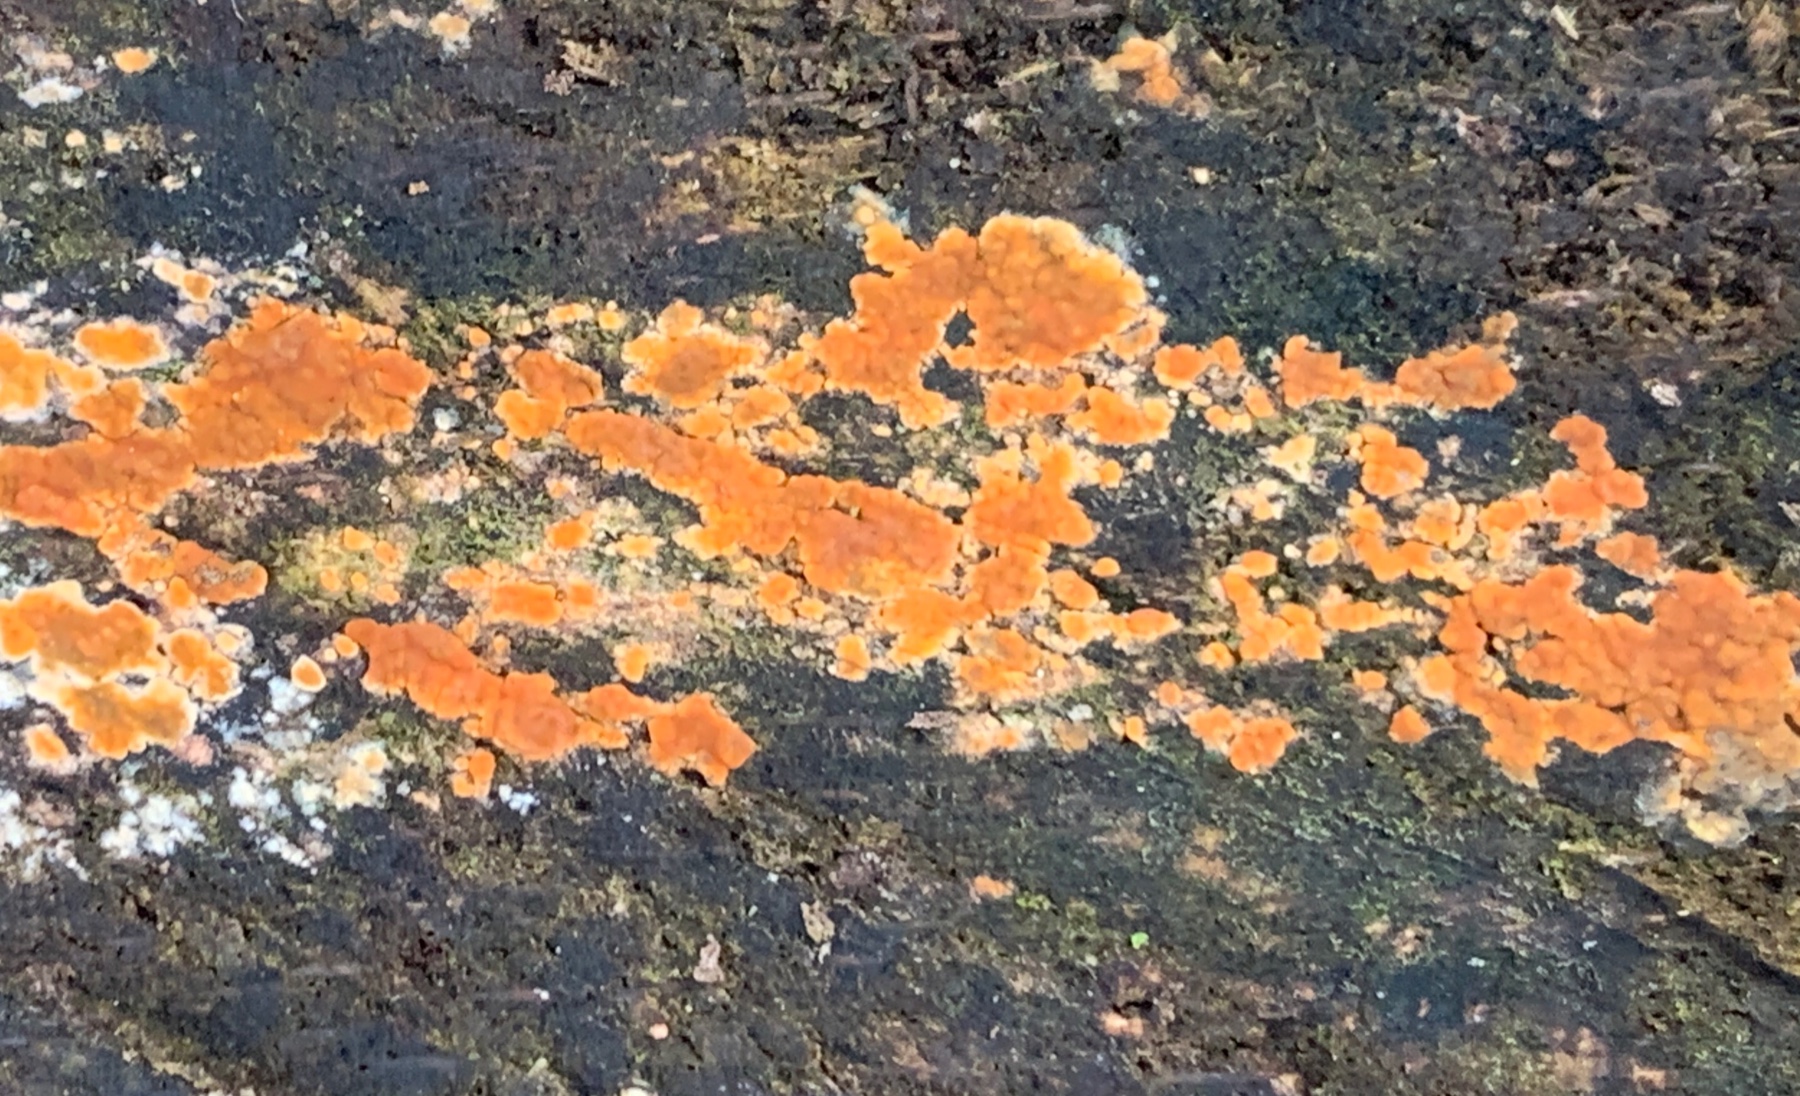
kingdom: Fungi
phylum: Basidiomycota
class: Agaricomycetes
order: Russulales
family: Peniophoraceae
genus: Peniophora
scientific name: Peniophora incarnata
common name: laksefarvet voksskind
